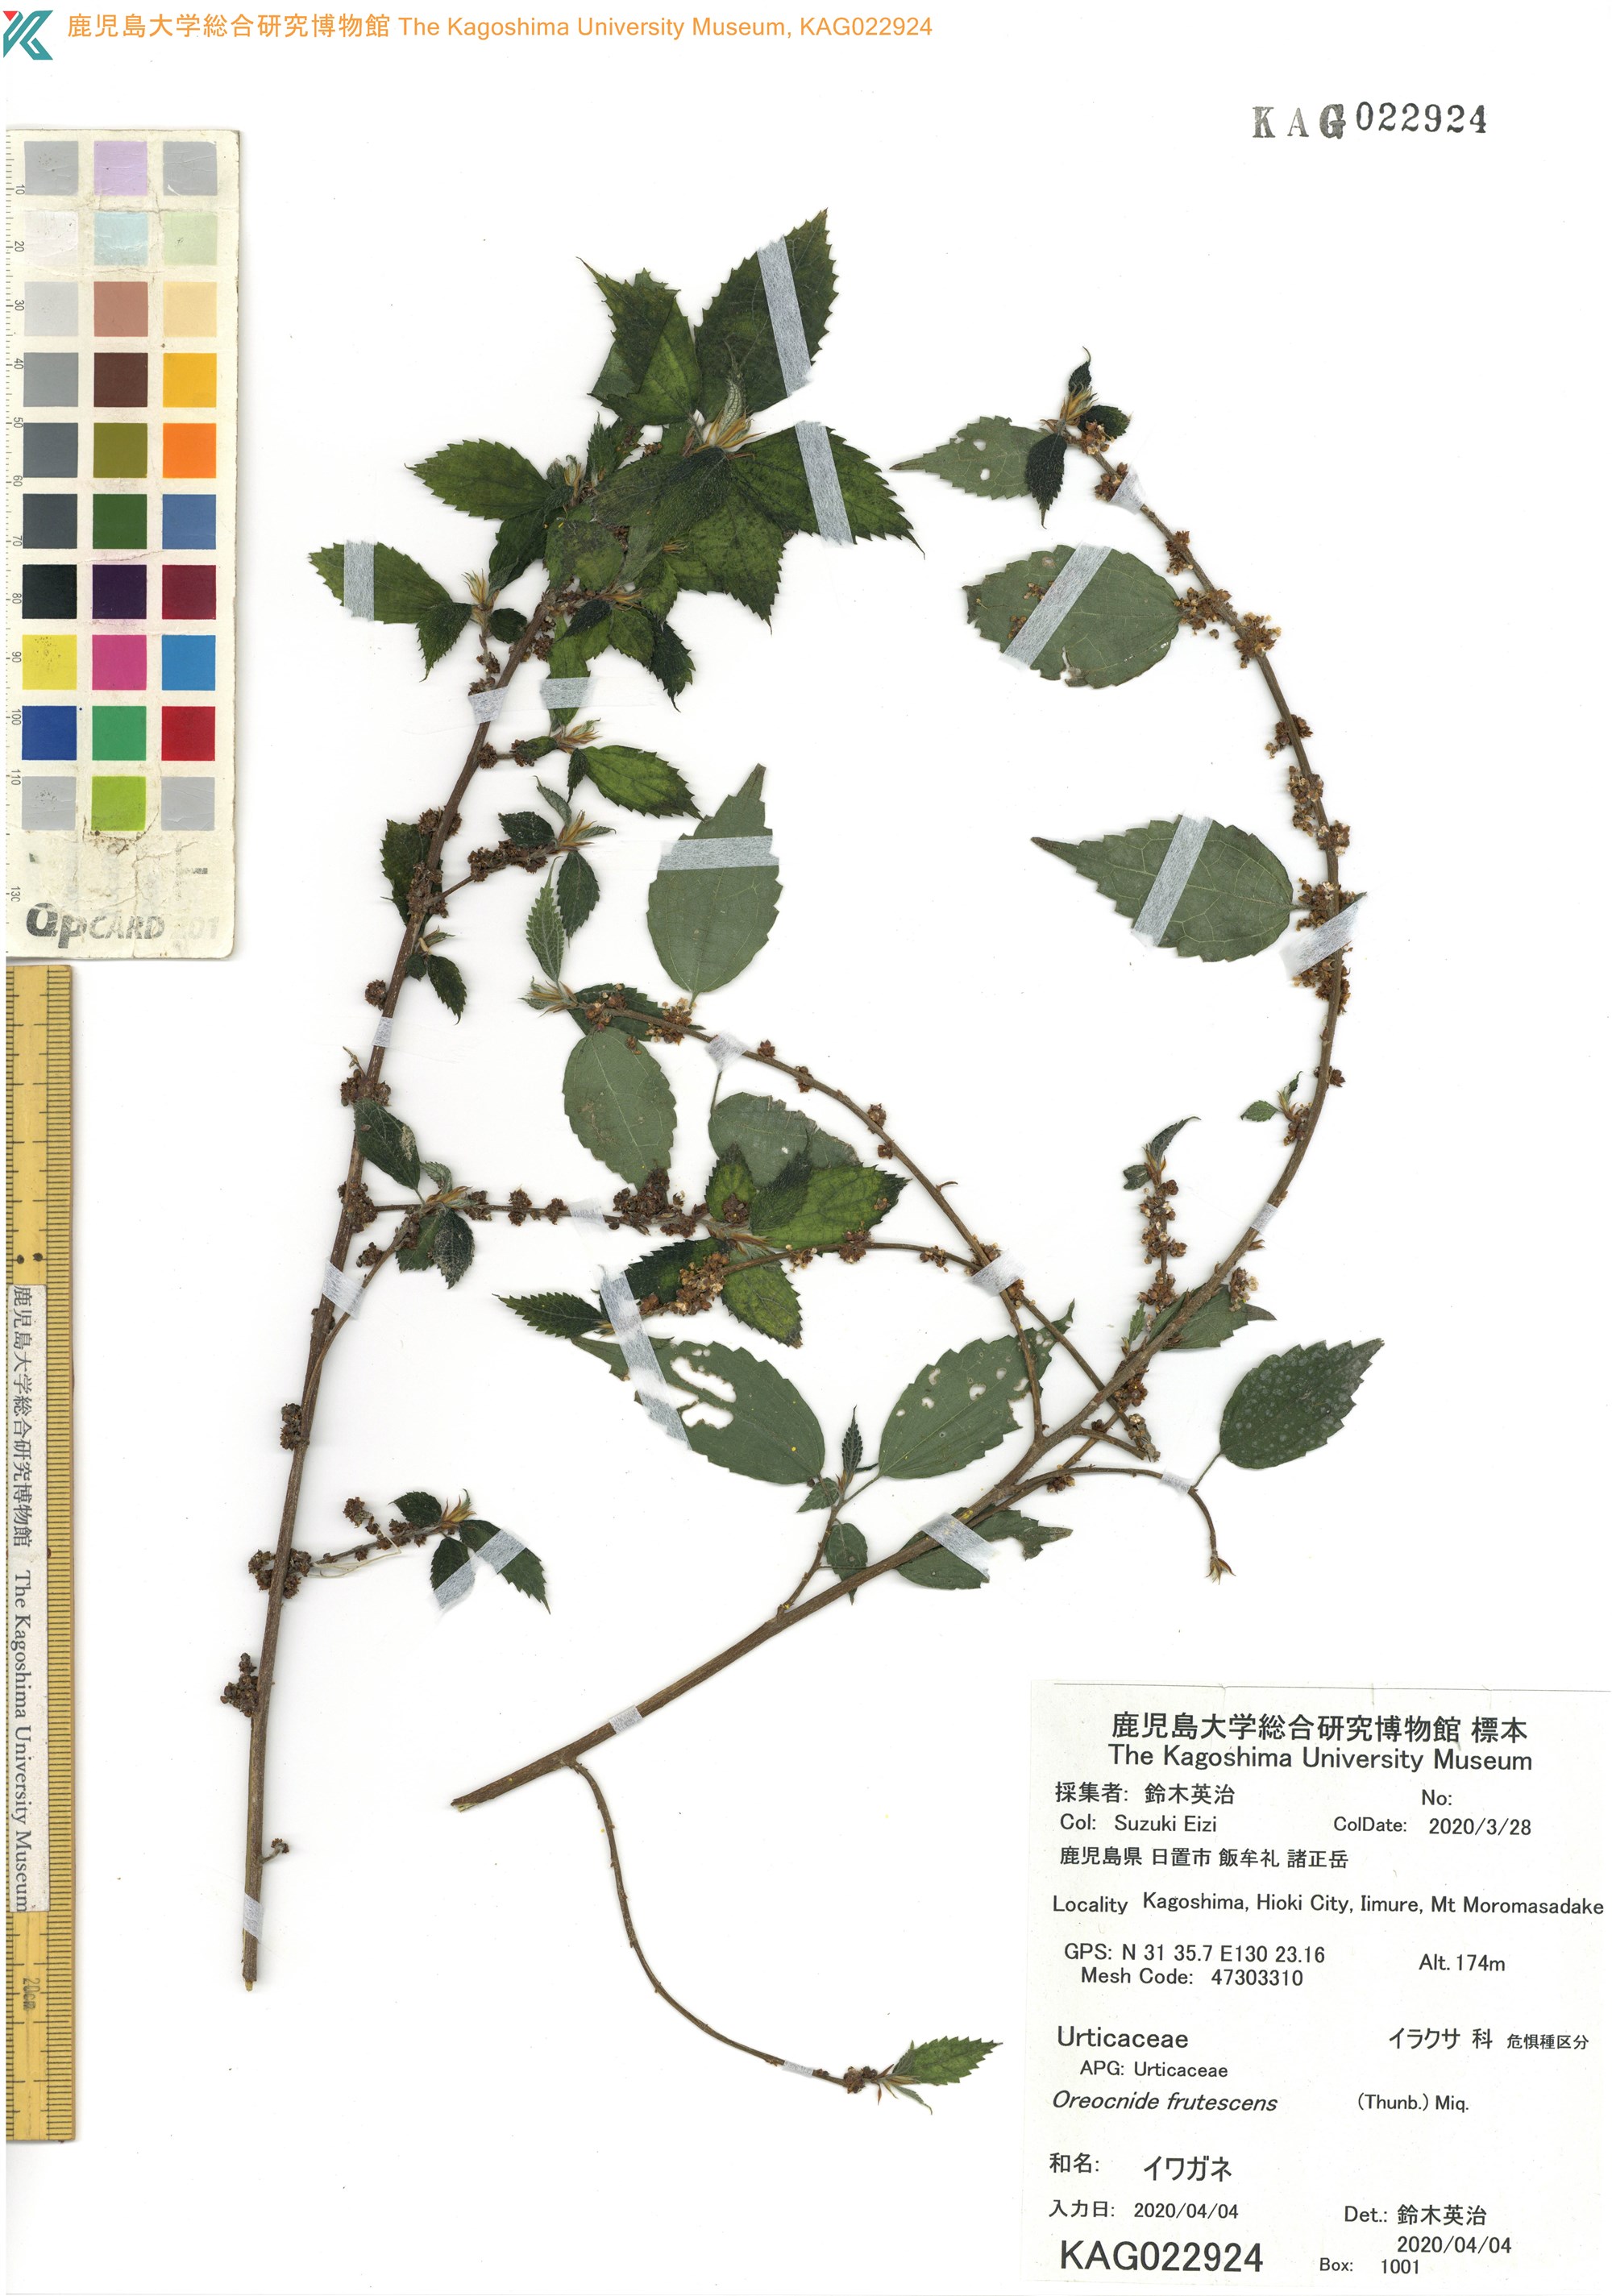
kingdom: Plantae
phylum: Tracheophyta
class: Magnoliopsida
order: Rosales
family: Urticaceae
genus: Oreocnide
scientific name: Oreocnide frutescens
